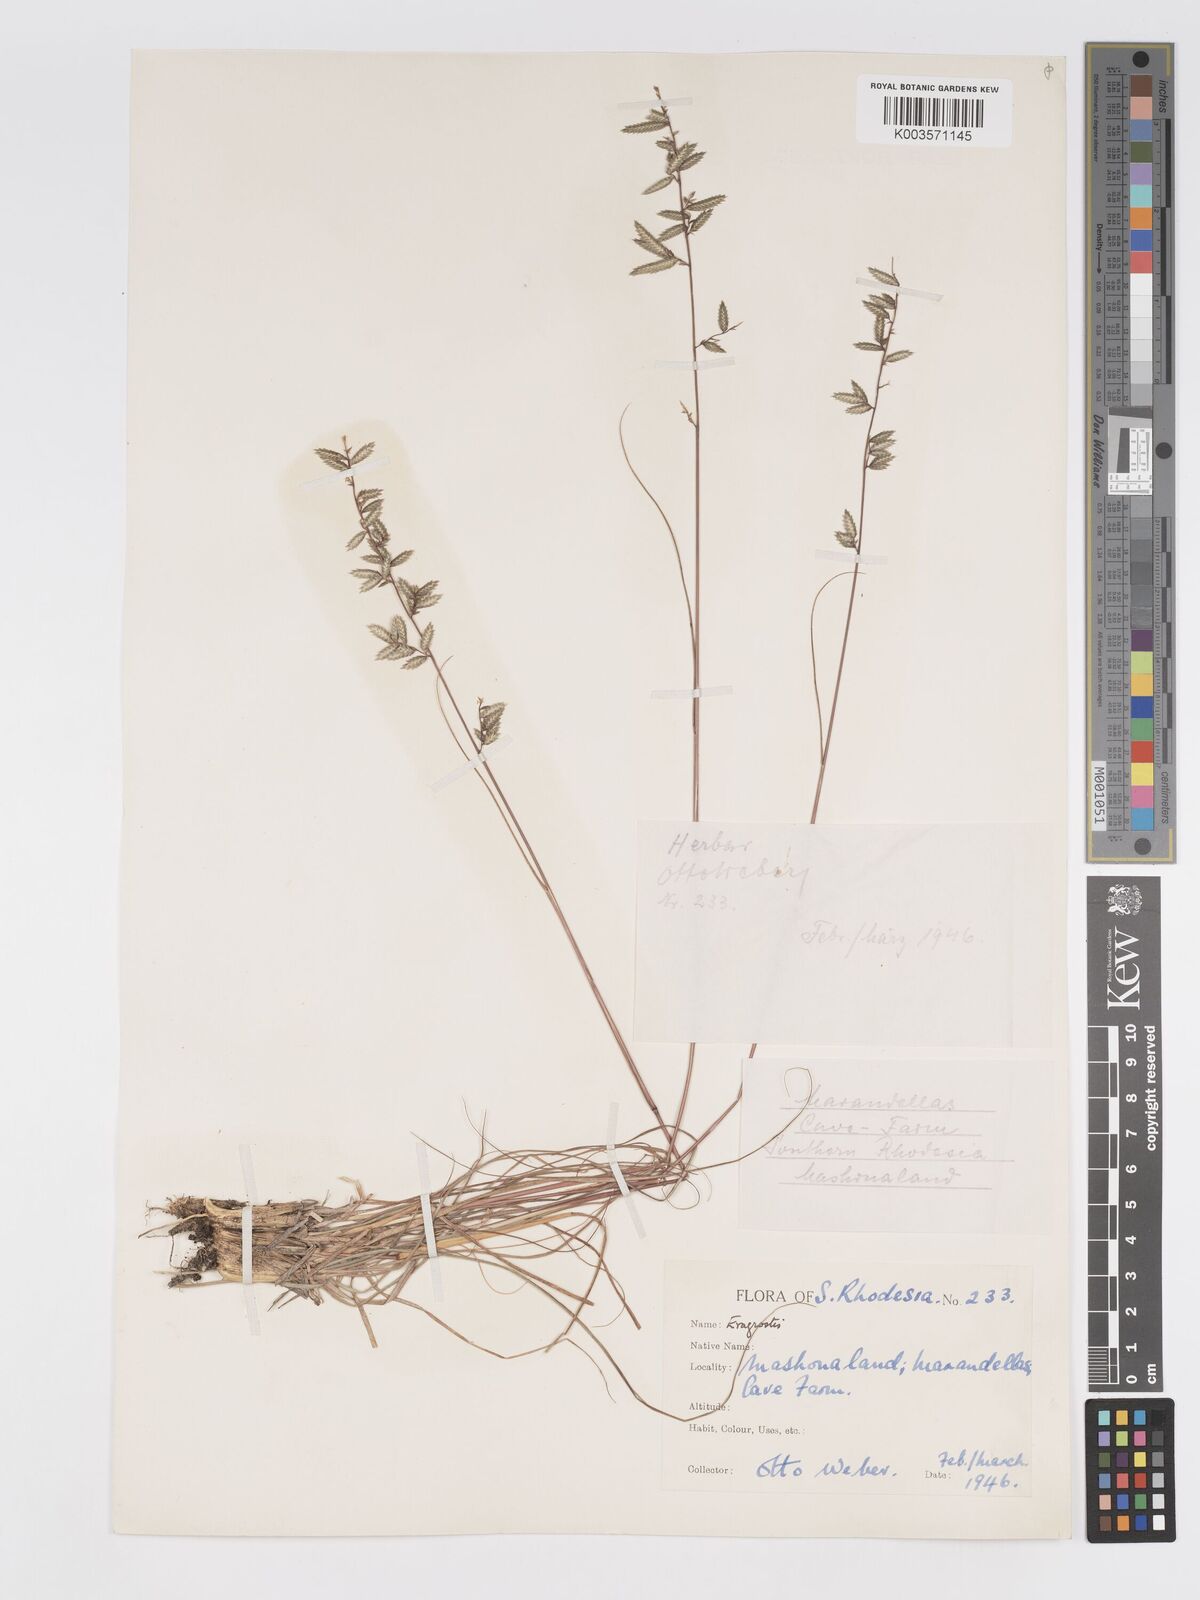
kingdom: Plantae
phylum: Tracheophyta
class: Liliopsida
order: Poales
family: Poaceae
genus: Eragrostis
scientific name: Eragrostis nindensis
